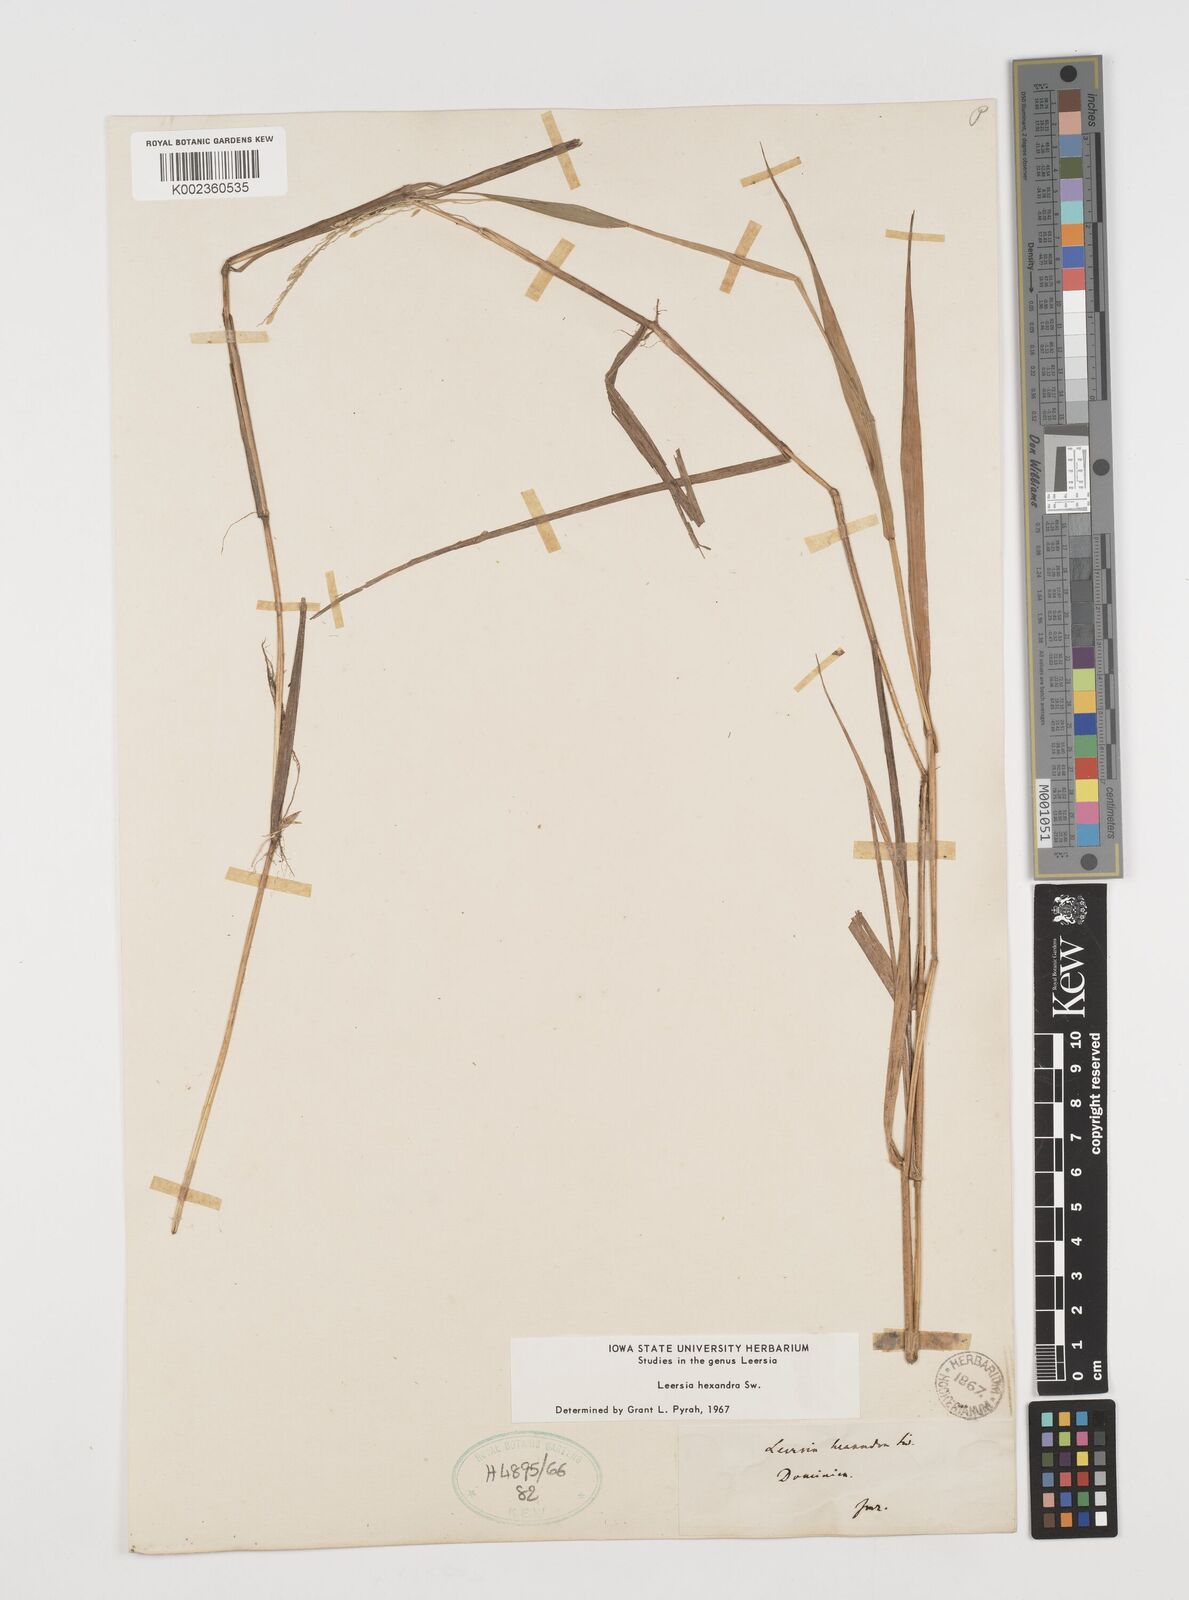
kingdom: Plantae
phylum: Tracheophyta
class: Liliopsida
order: Poales
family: Poaceae
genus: Leersia
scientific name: Leersia hexandra
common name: Southern cut grass
